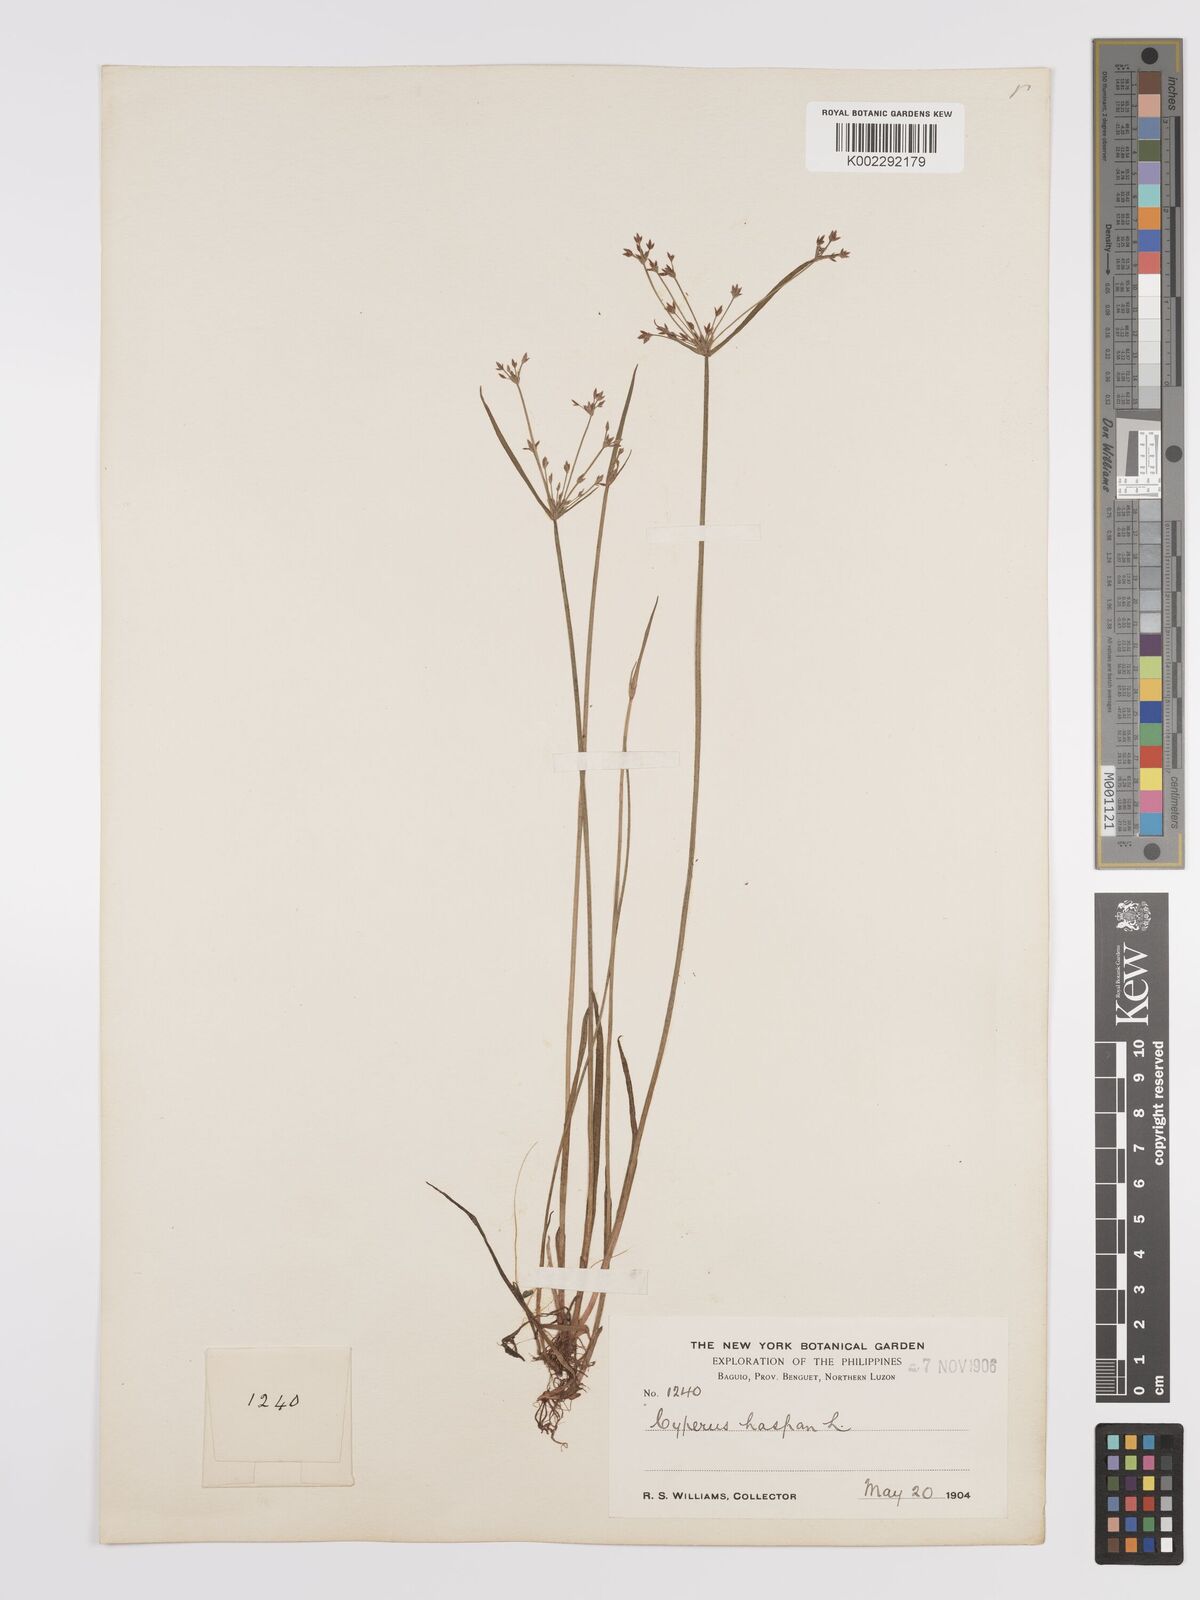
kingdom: Plantae
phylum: Tracheophyta
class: Liliopsida
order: Poales
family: Cyperaceae
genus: Cyperus
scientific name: Cyperus haspan
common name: Haspan flatsedge
